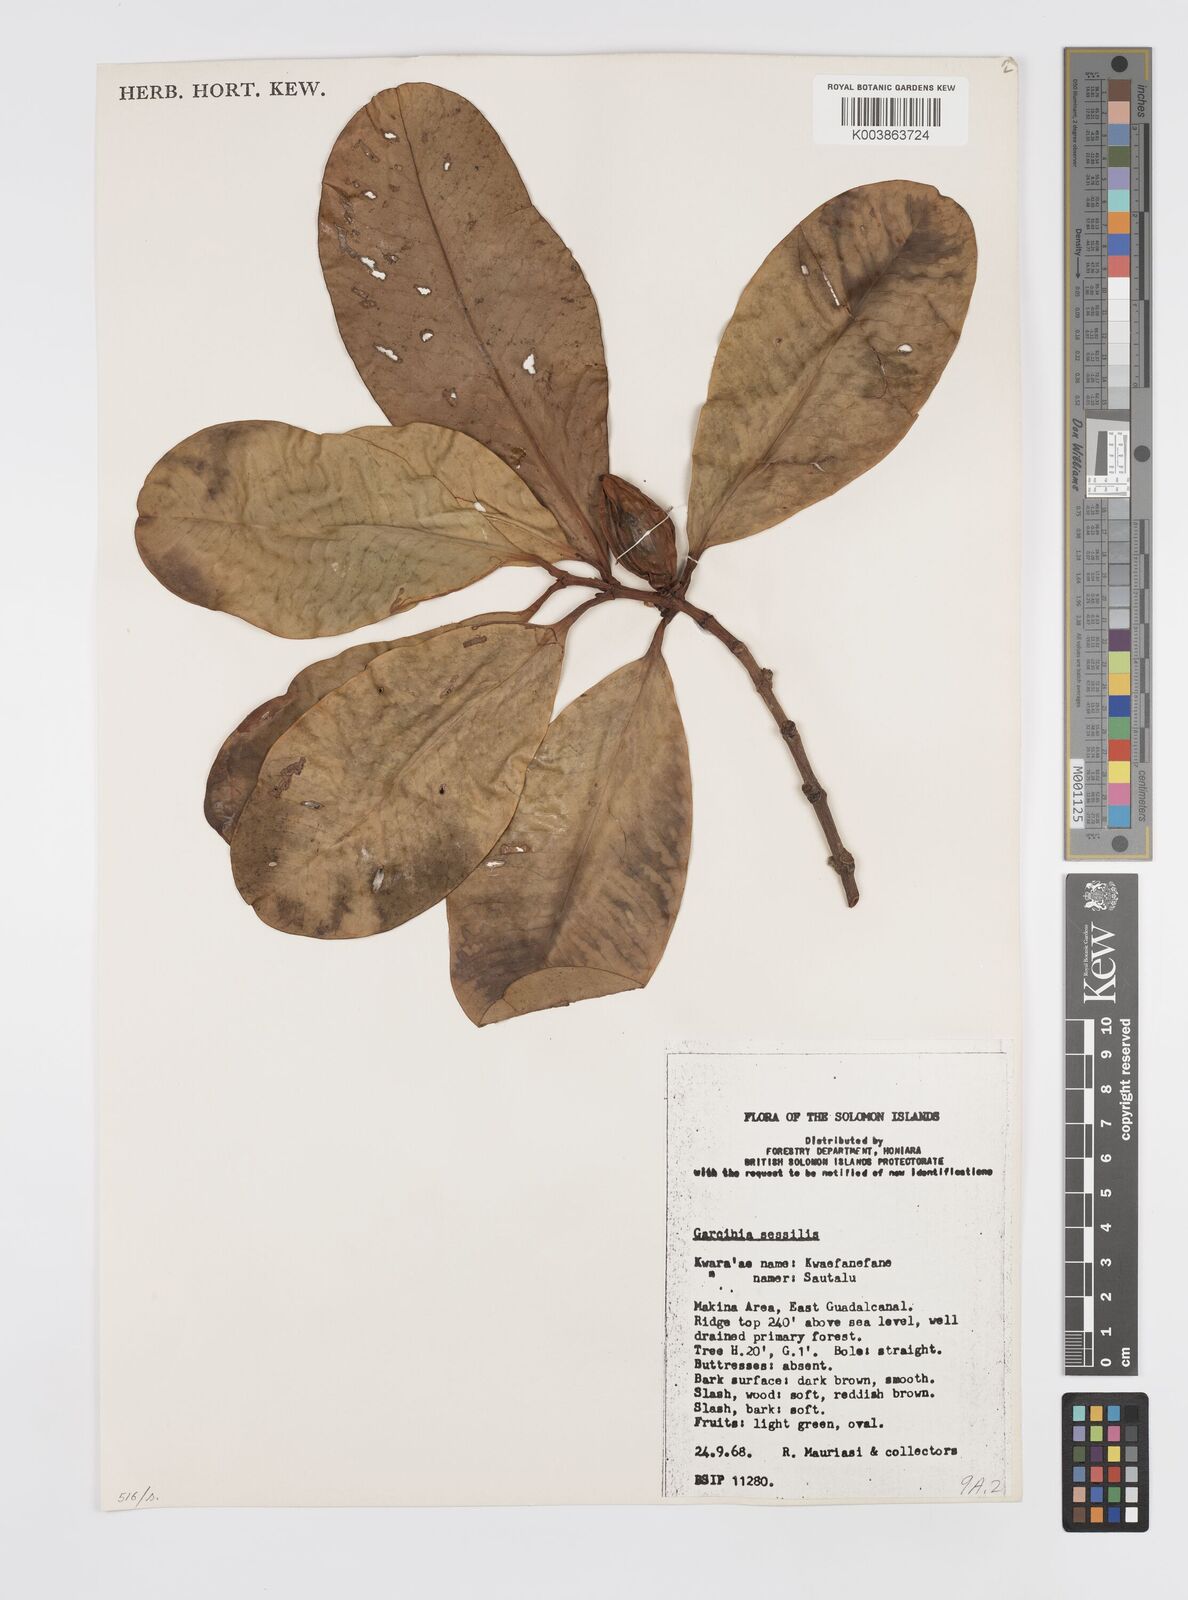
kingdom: Plantae
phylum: Tracheophyta
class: Magnoliopsida
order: Malpighiales
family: Clusiaceae
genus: Garcinia
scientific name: Garcinia sessilis
